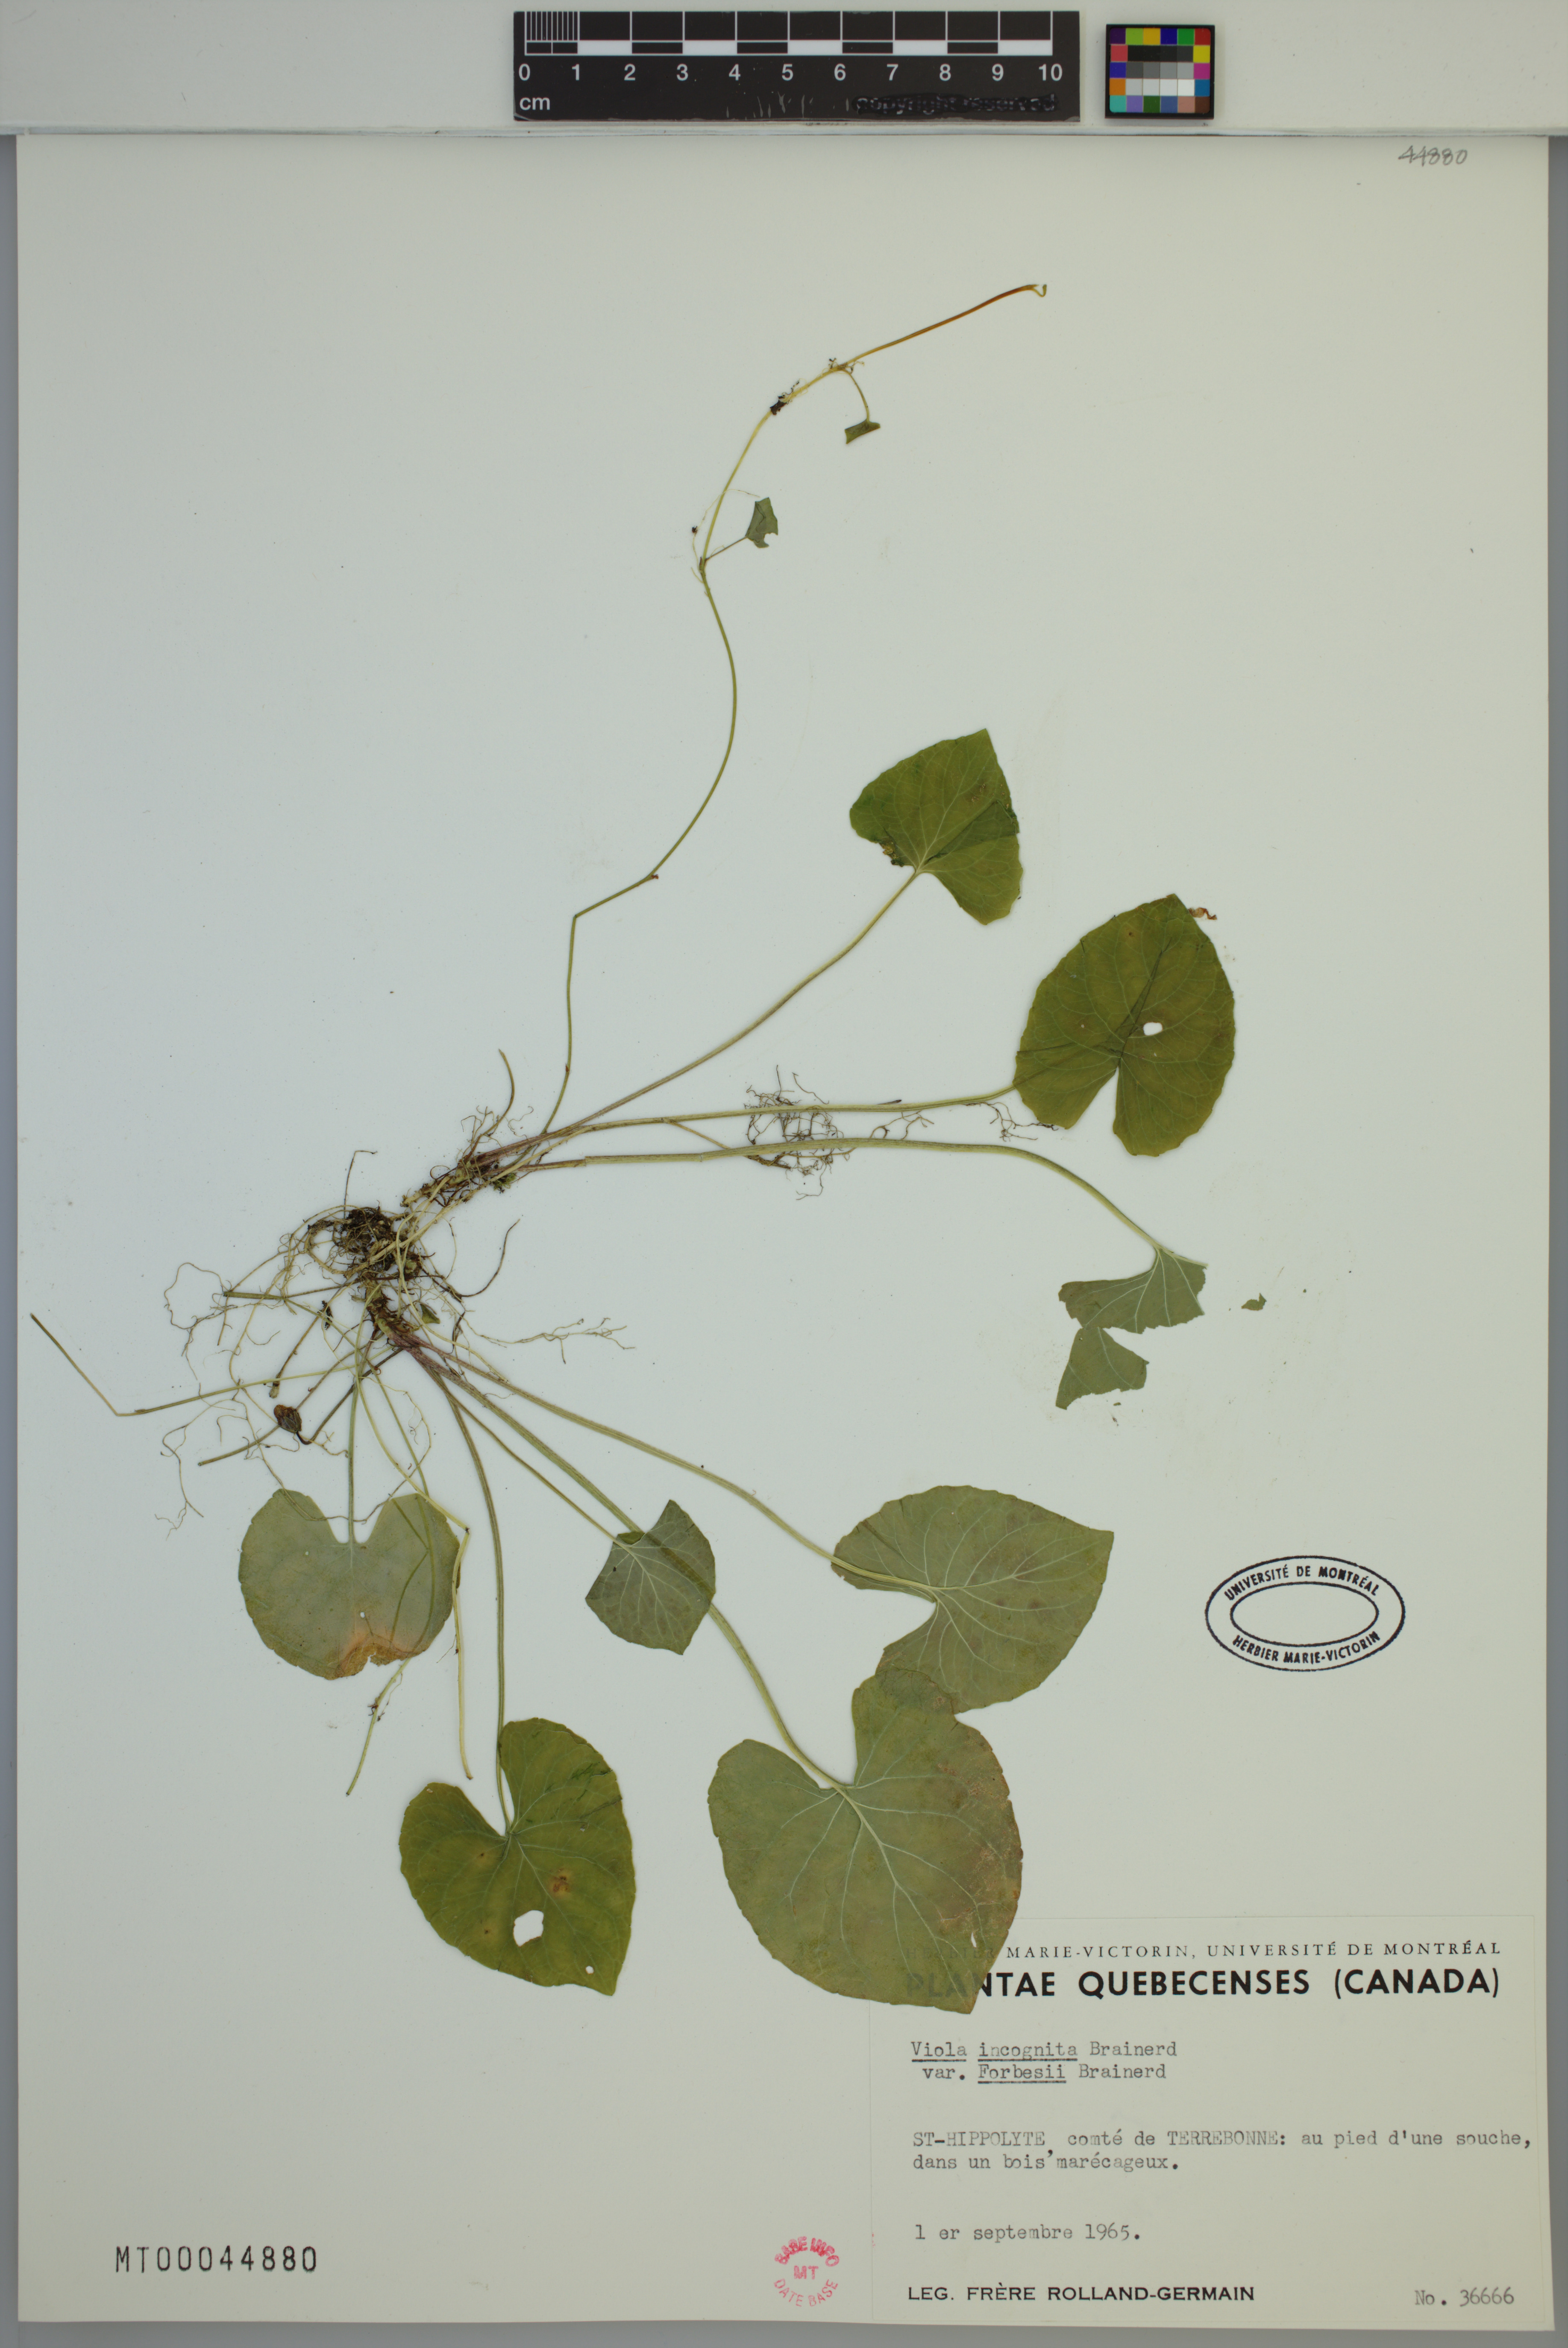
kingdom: Plantae
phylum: Tracheophyta
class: Magnoliopsida
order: Malpighiales
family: Violaceae
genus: Viola
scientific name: Viola blanda
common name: Sweet white violet
